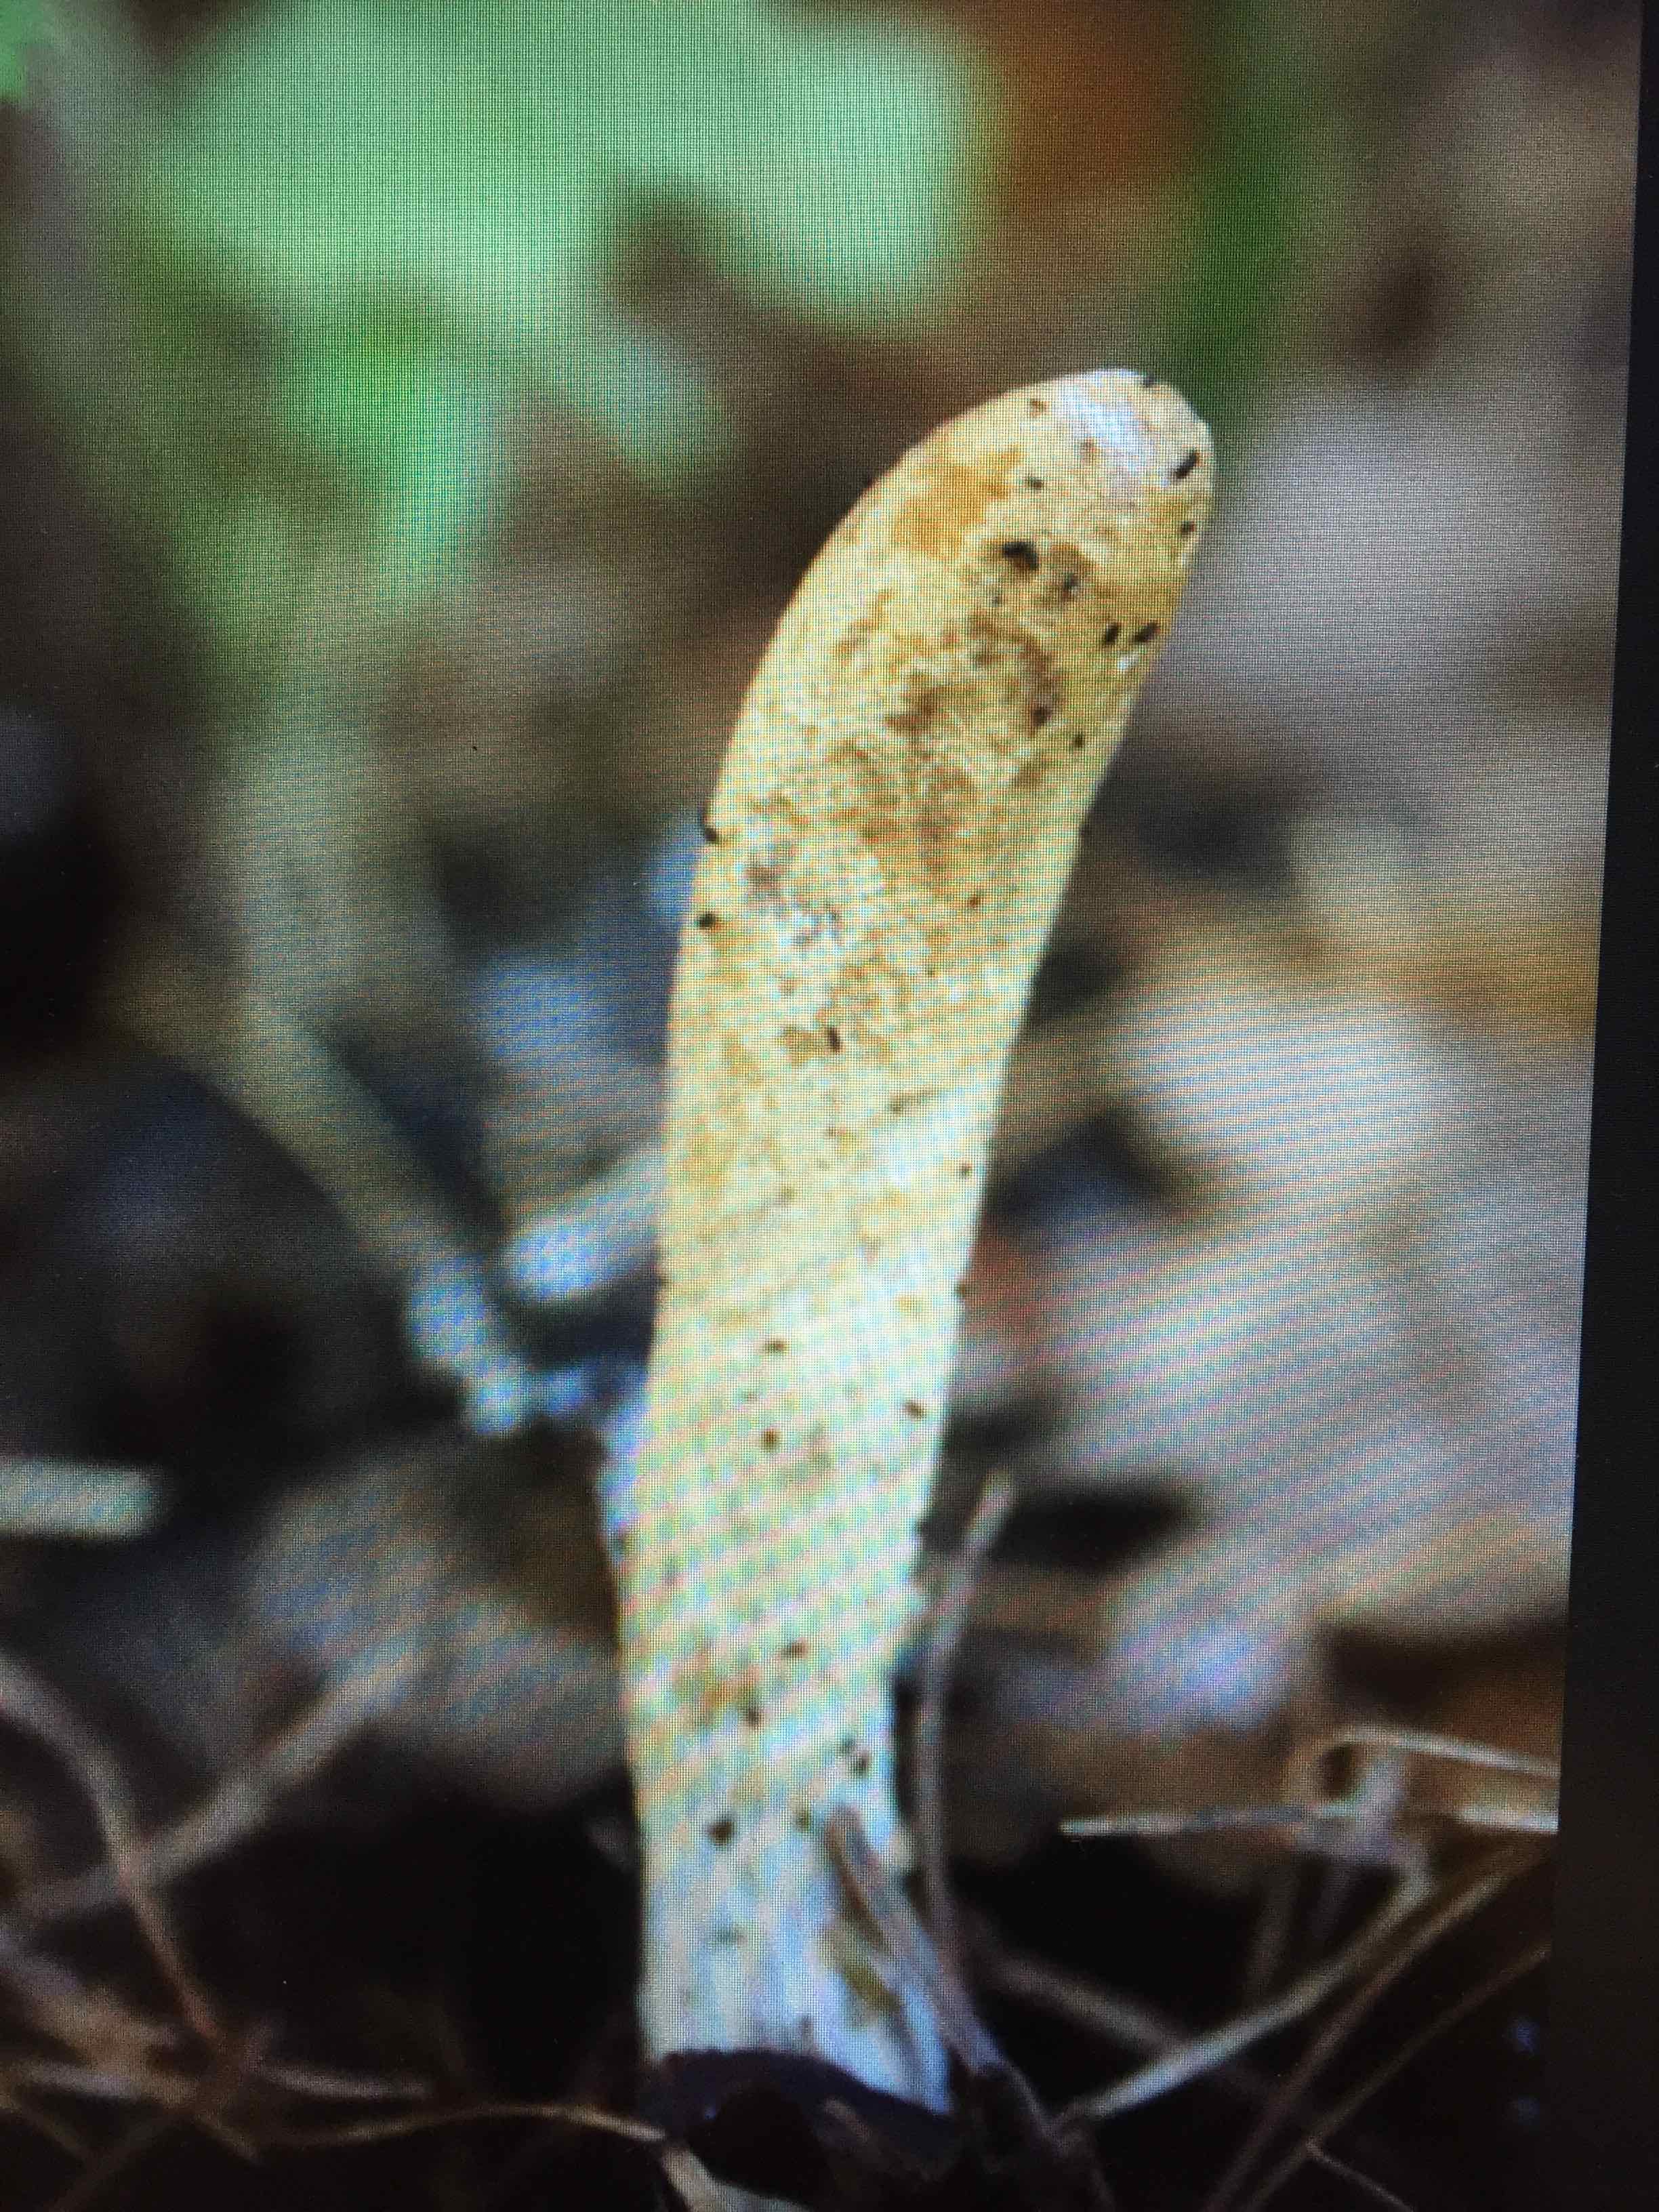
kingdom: Fungi
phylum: Ascomycota
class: Sordariomycetes
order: Hypocreales
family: Hypocreaceae
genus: Trichoderma
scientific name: Trichoderma leucopus
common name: lysstokket kødkerne
